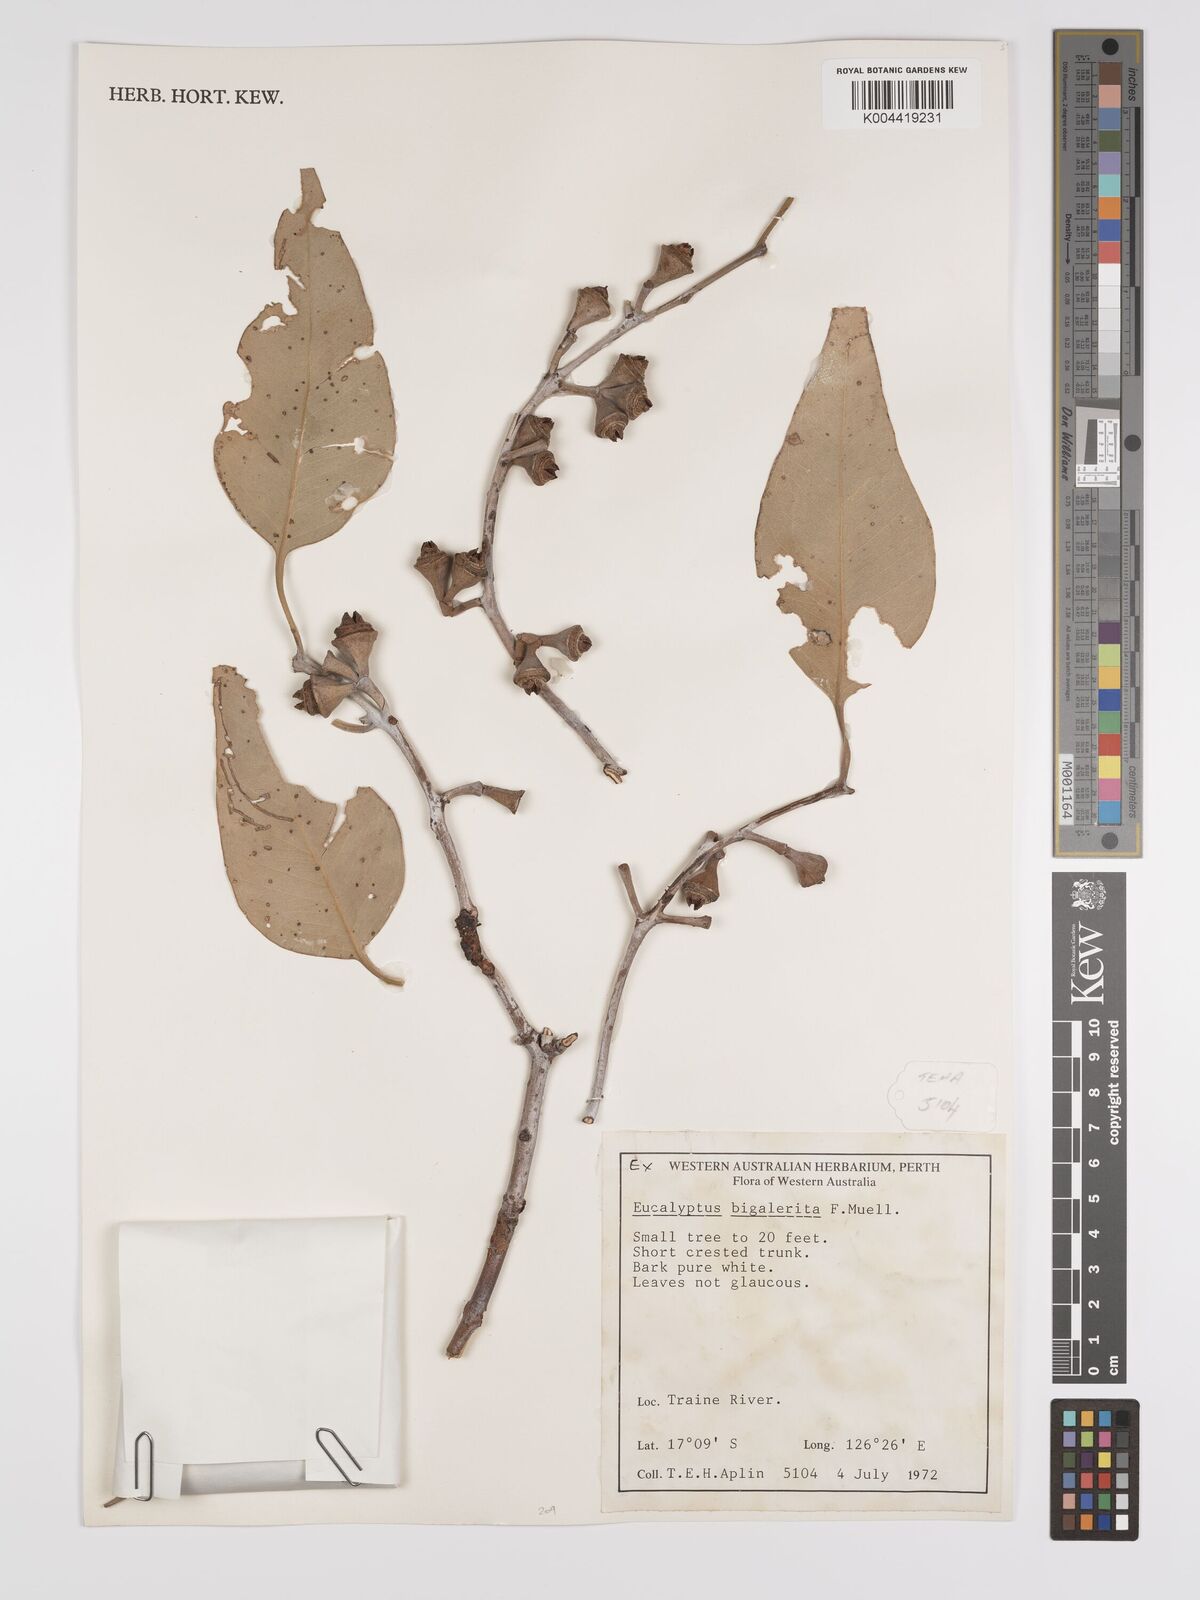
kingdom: Plantae
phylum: Tracheophyta
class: Magnoliopsida
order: Myrtales
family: Myrtaceae
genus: Eucalyptus
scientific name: Eucalyptus bigalerita
